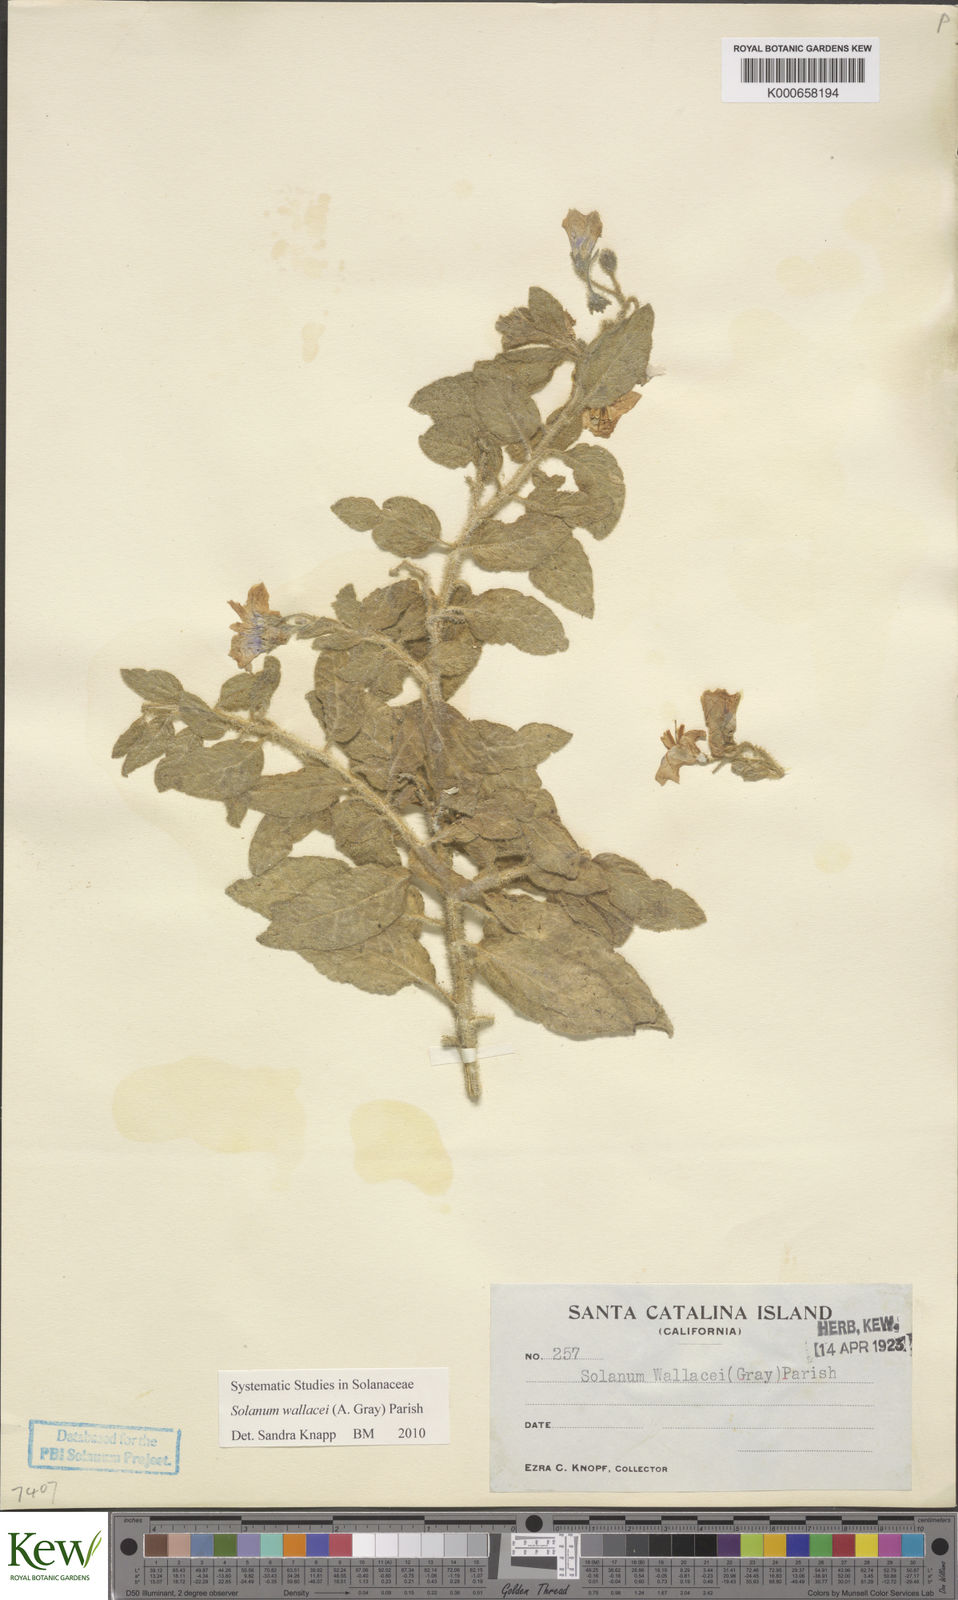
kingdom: Plantae
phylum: Tracheophyta
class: Magnoliopsida
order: Solanales
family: Solanaceae
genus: Solanum
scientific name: Solanum umbelliferum
